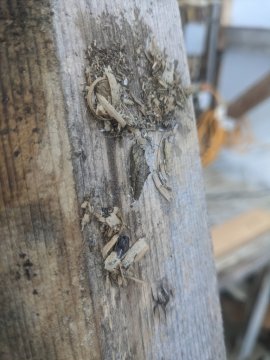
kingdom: Animalia
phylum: Arthropoda
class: Insecta
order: Lepidoptera
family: Pieridae
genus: Pieris
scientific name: Pieris rapae
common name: Cabbage White
